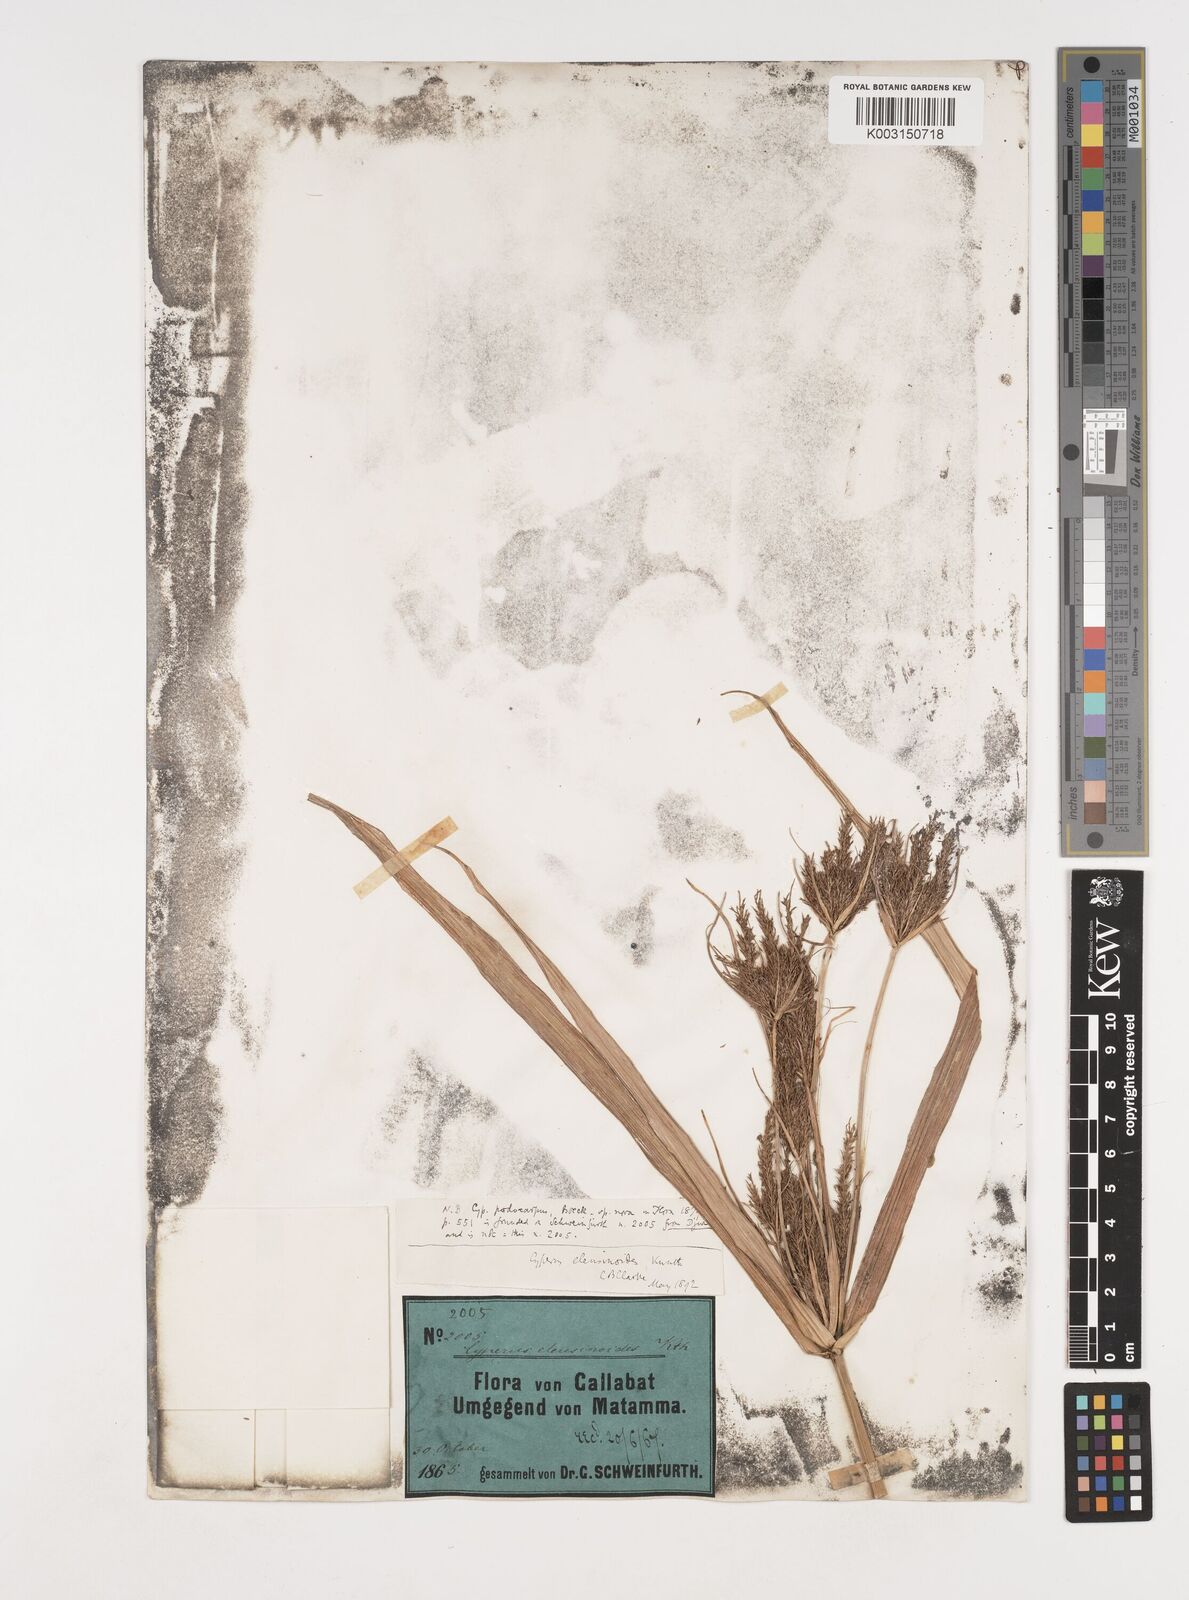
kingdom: Plantae
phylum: Tracheophyta
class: Liliopsida
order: Poales
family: Cyperaceae
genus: Cyperus
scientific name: Cyperus nutans
